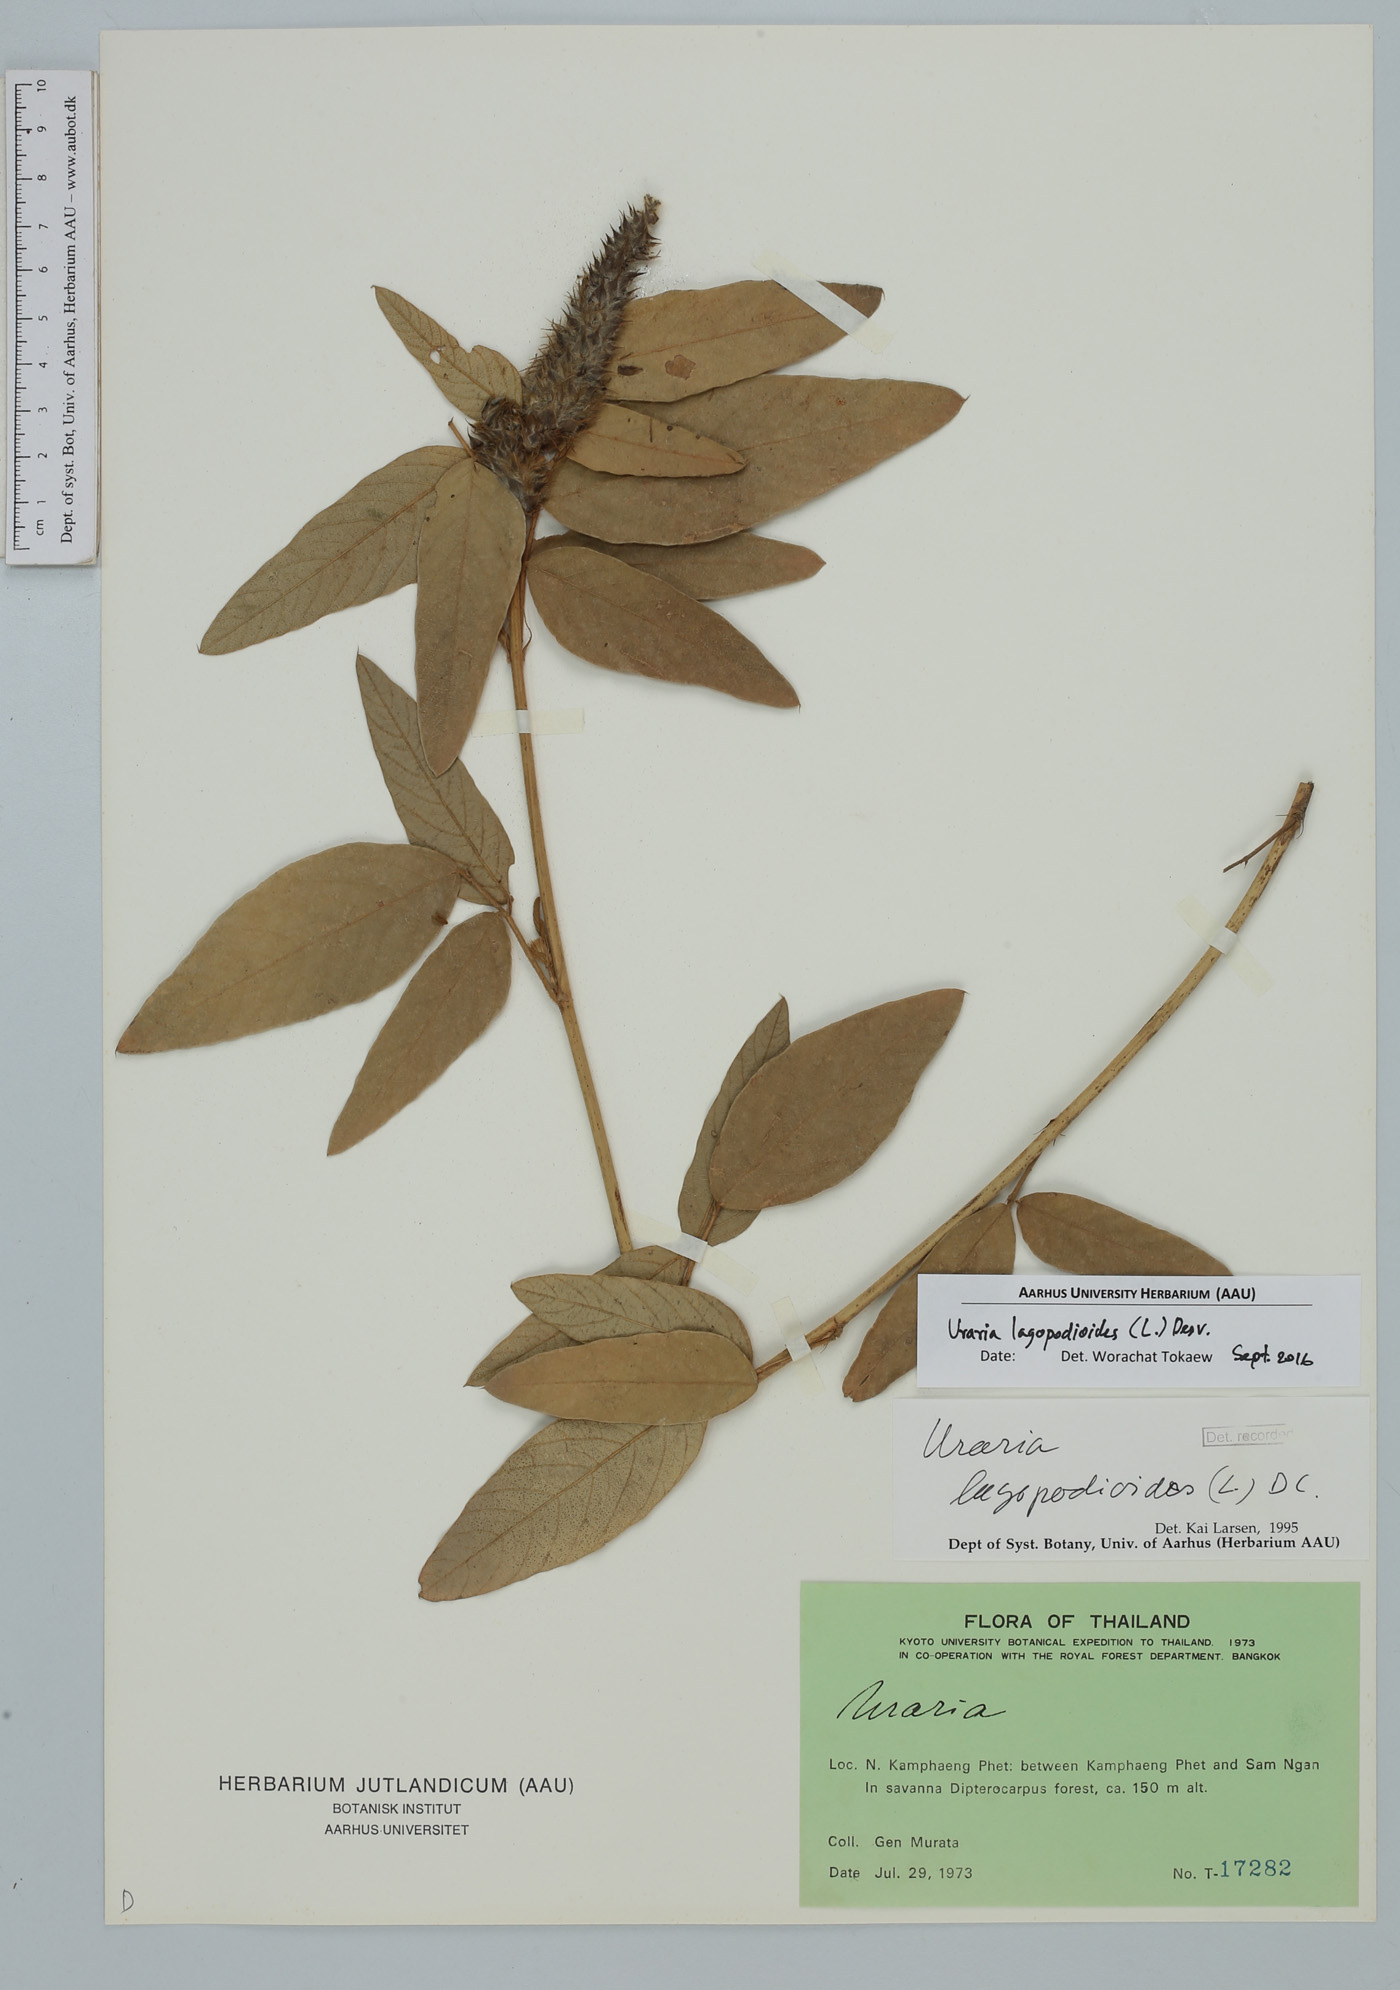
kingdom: Plantae
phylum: Tracheophyta
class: Magnoliopsida
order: Fabales
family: Fabaceae
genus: Uraria
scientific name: Uraria lagopodioides
